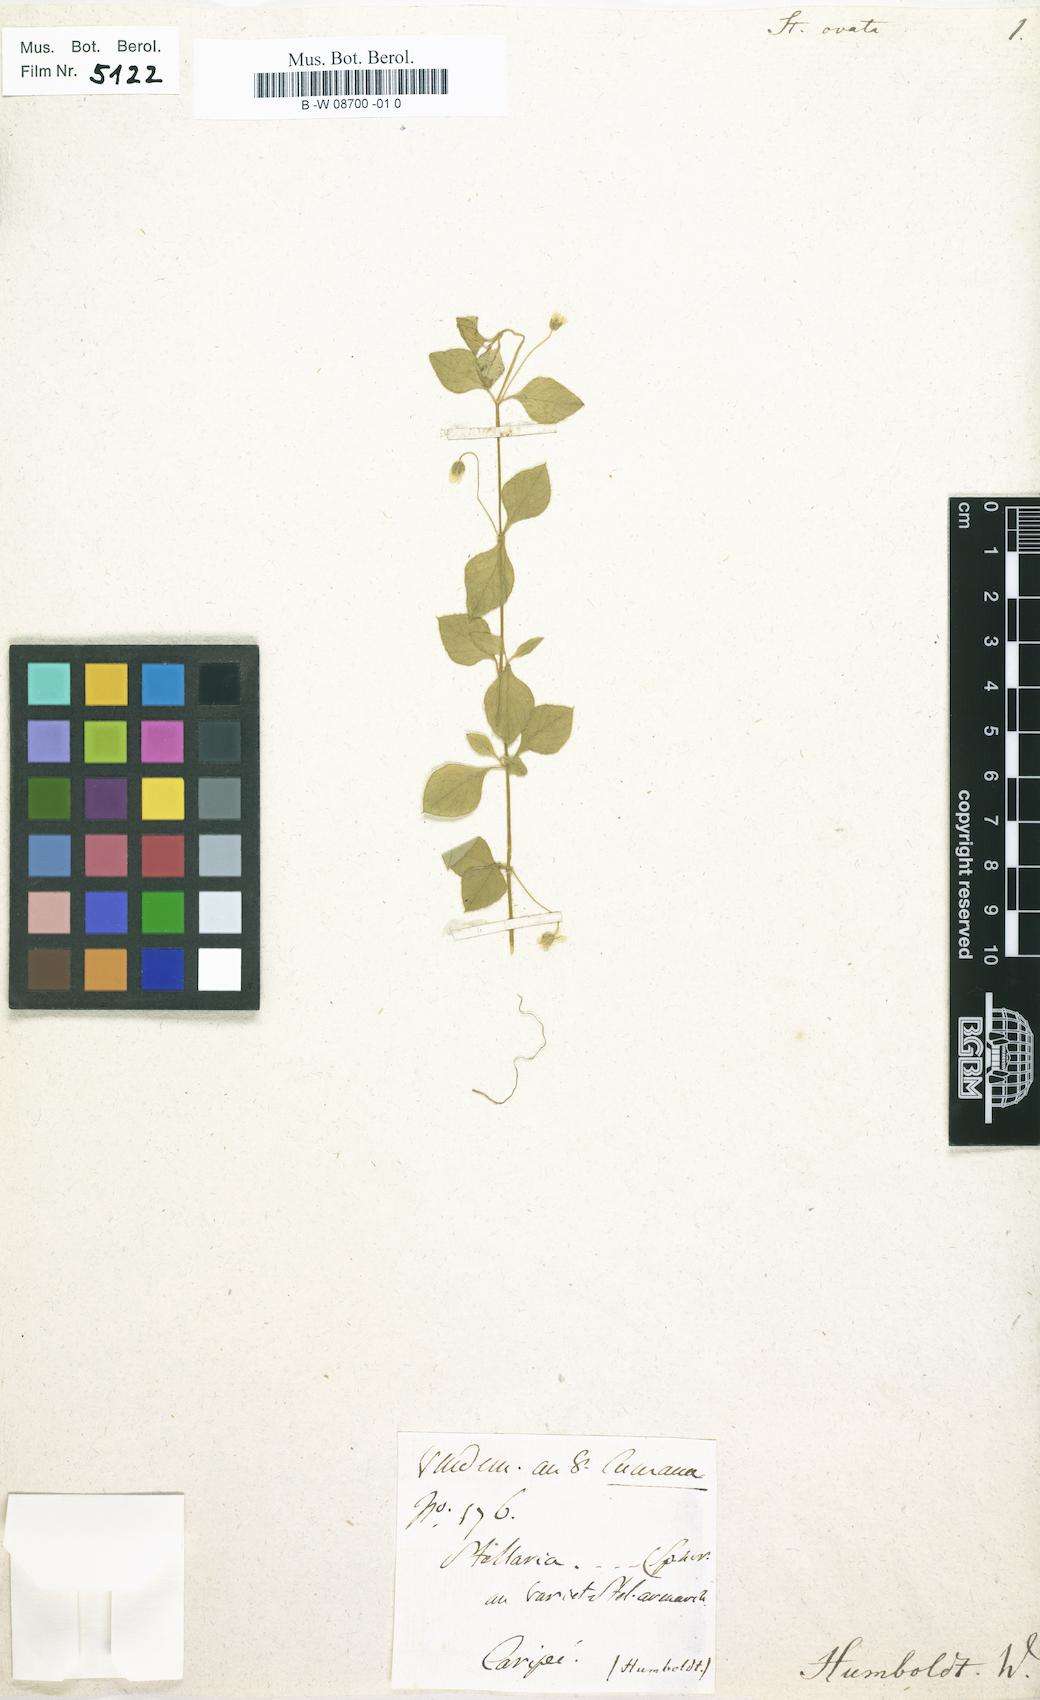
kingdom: Plantae
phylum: Tracheophyta
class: Magnoliopsida
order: Caryophyllales
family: Caryophyllaceae
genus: Stellaria
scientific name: Stellaria ovata
